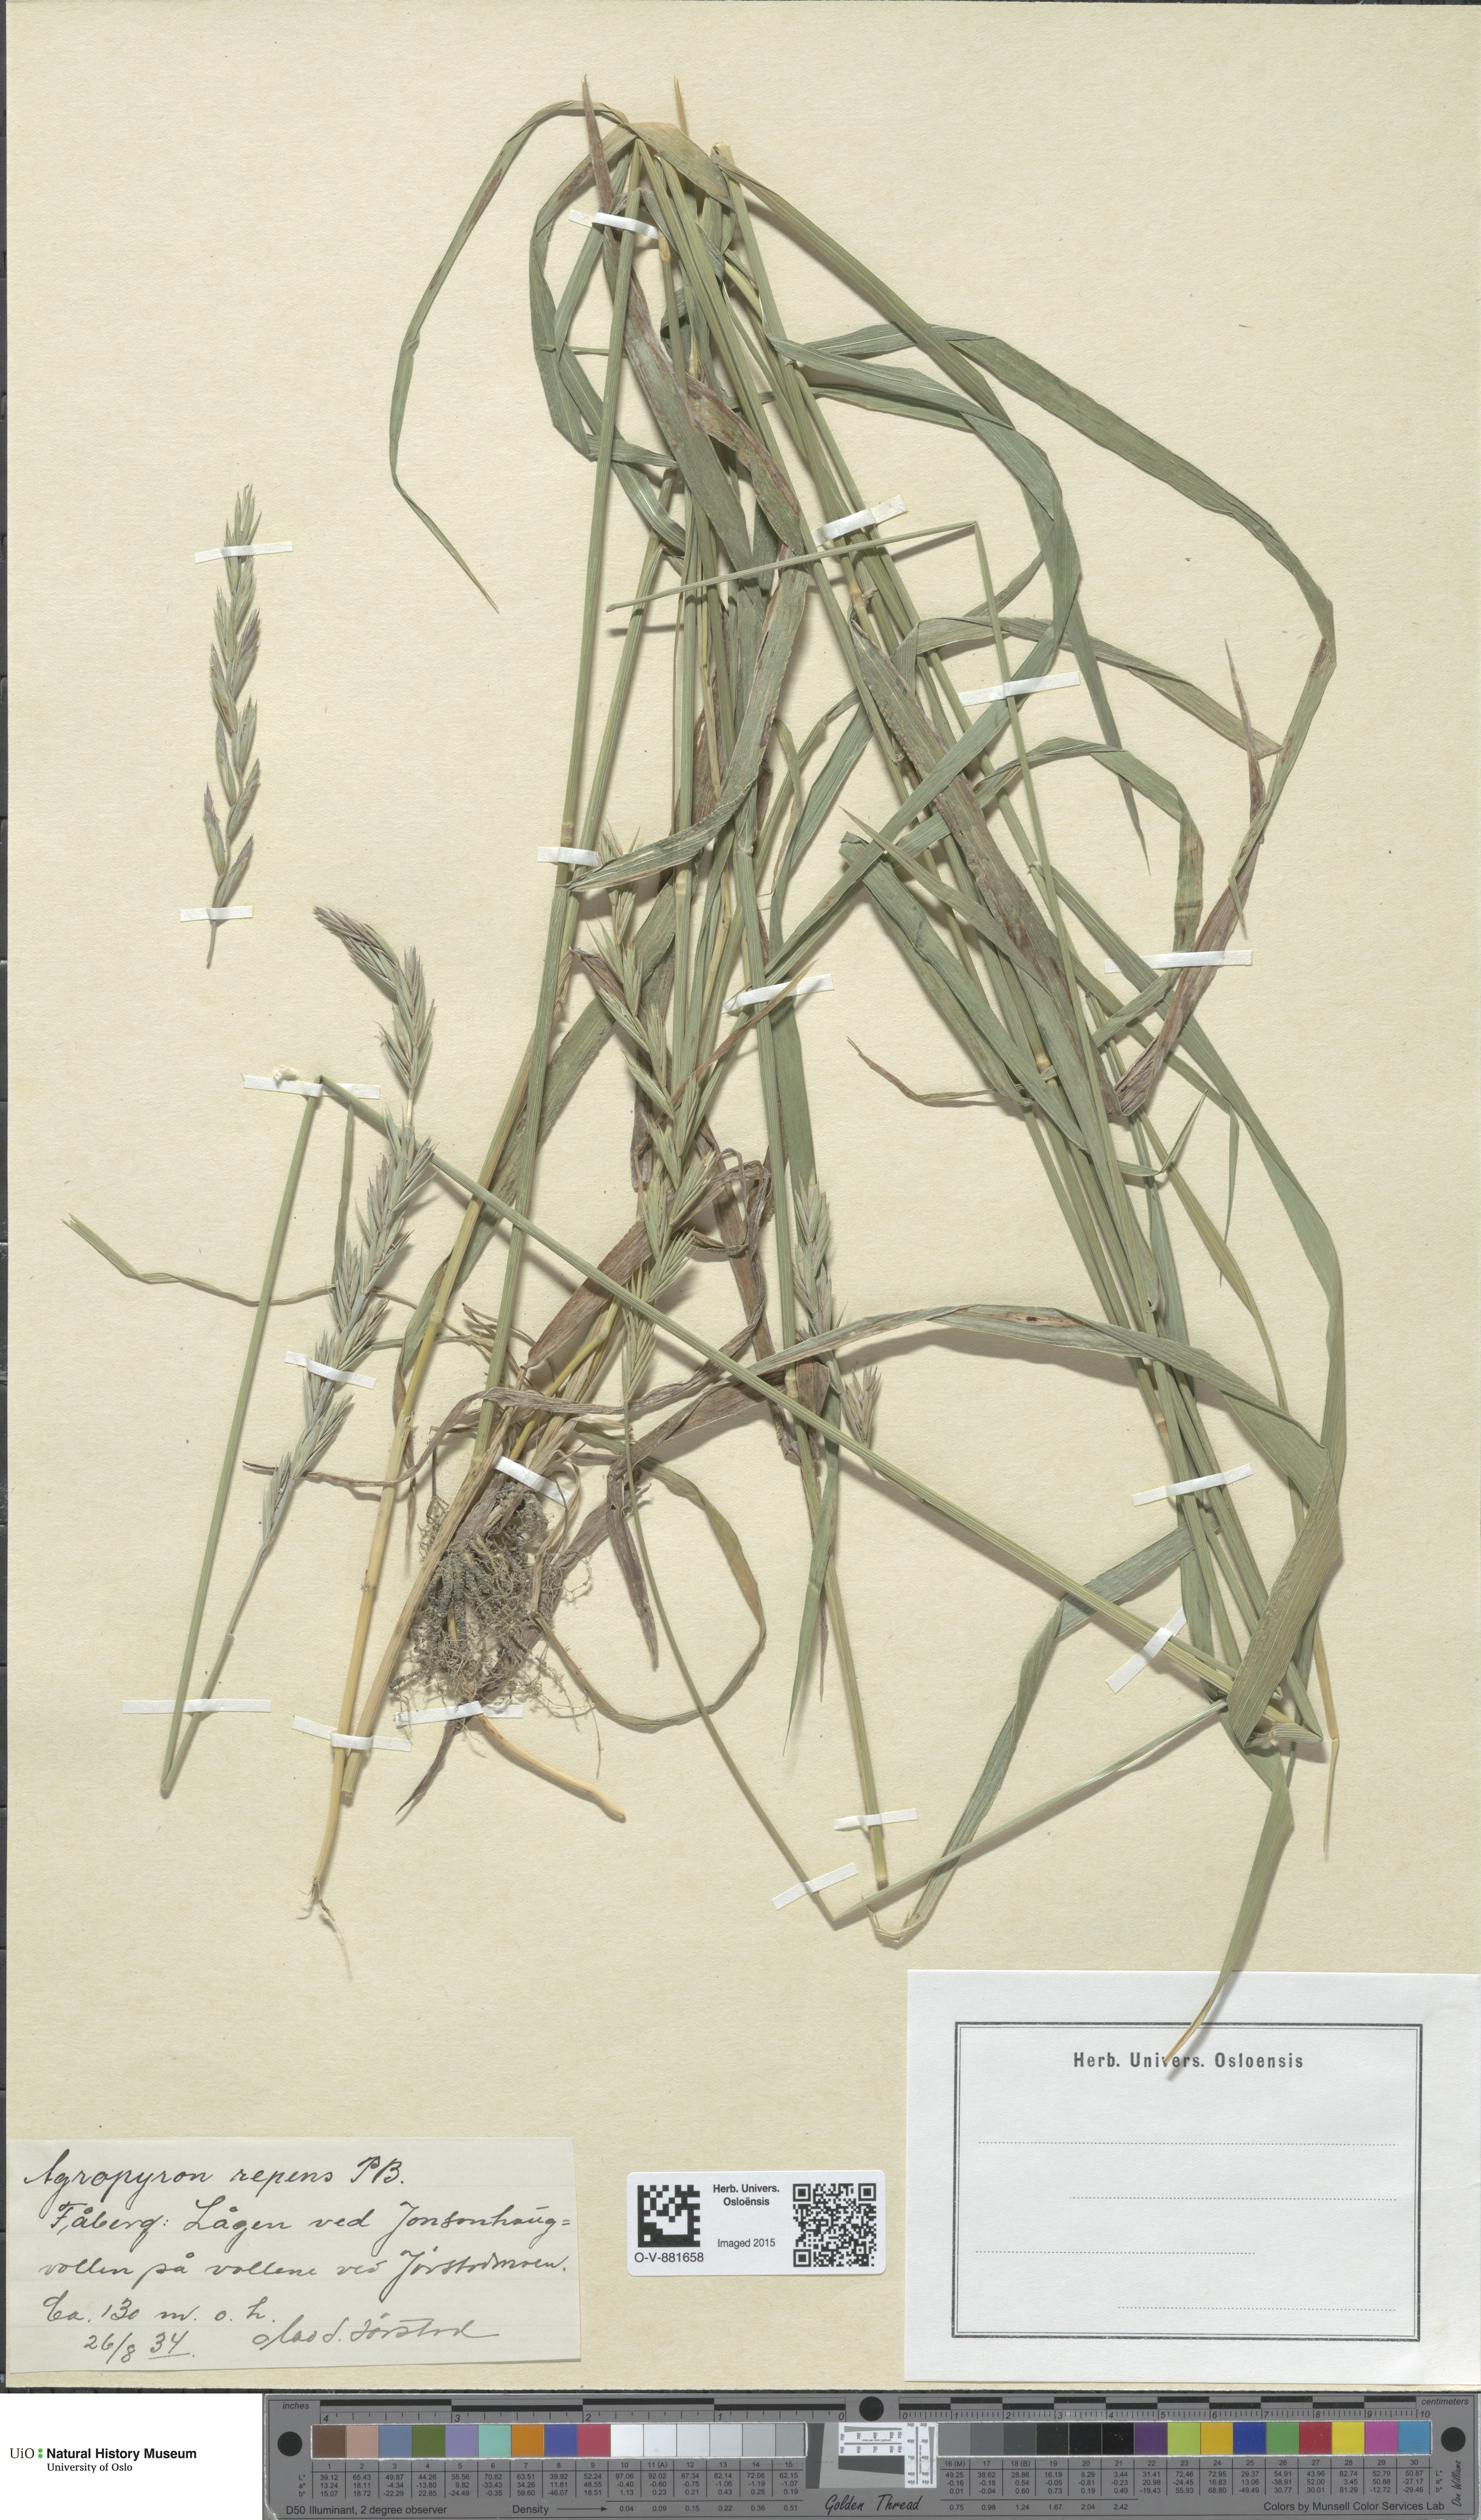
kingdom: Plantae
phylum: Tracheophyta
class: Liliopsida
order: Poales
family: Poaceae
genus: Elymus
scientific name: Elymus repens
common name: Quackgrass
